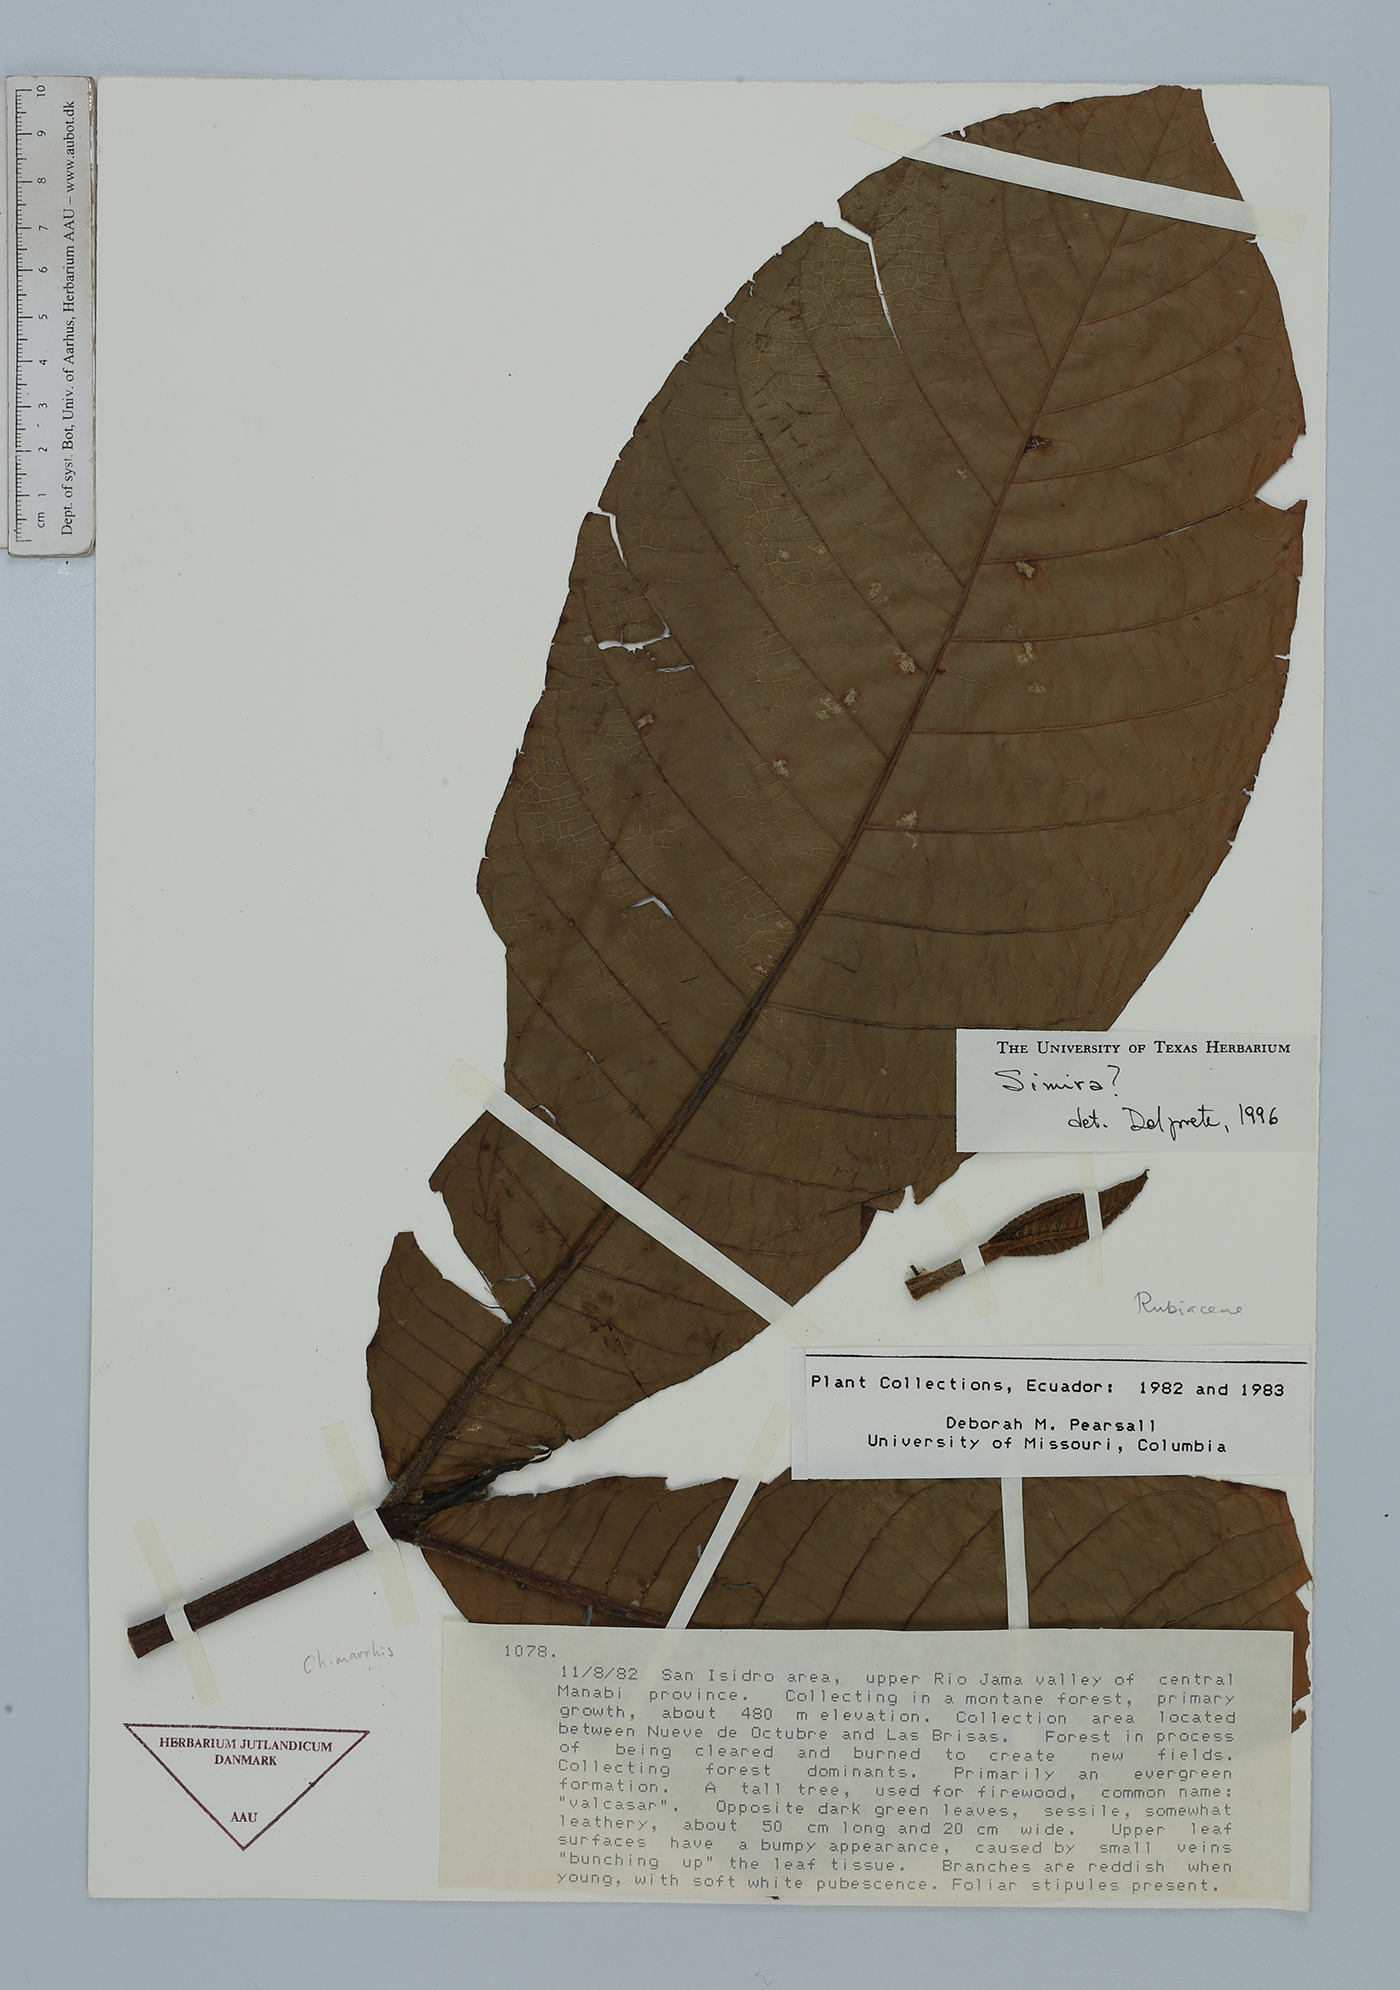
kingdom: Plantae
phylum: Tracheophyta
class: Magnoliopsida
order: Gentianales
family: Rubiaceae
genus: Simira
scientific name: Simira
